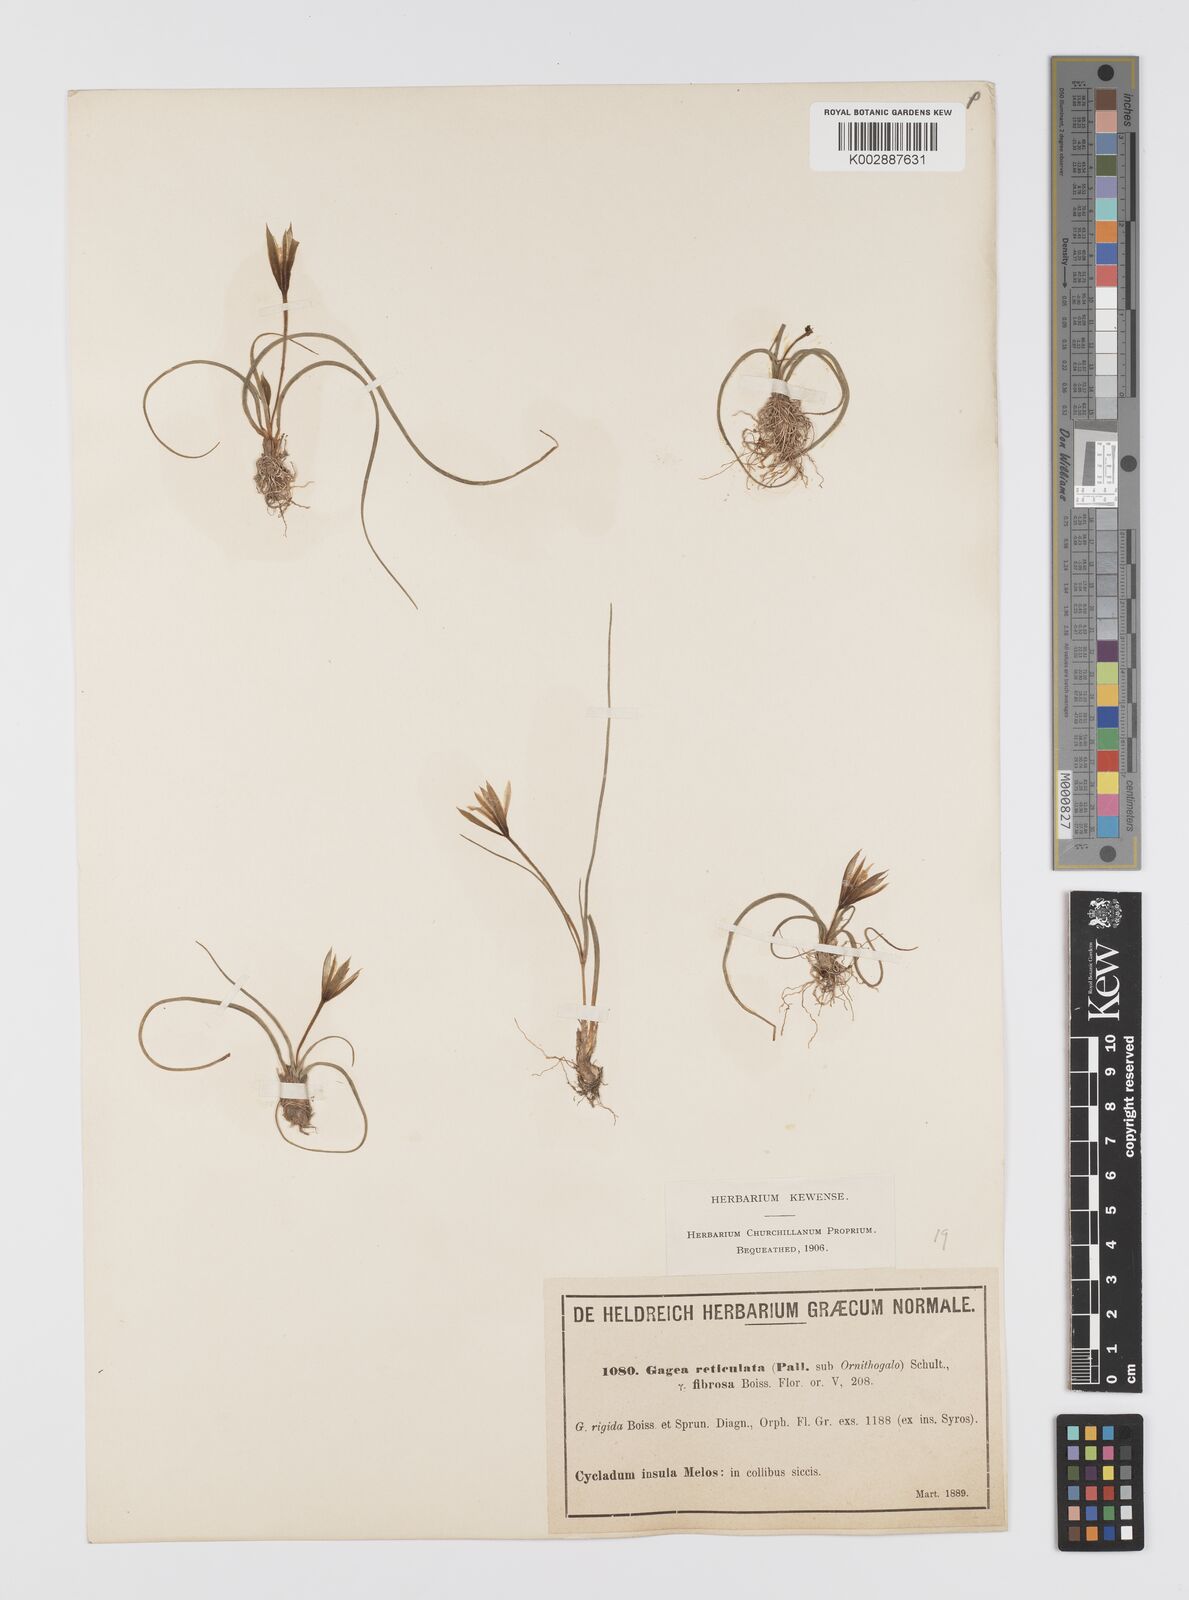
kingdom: Plantae
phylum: Tracheophyta
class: Liliopsida
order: Liliales
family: Liliaceae
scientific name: Liliaceae
